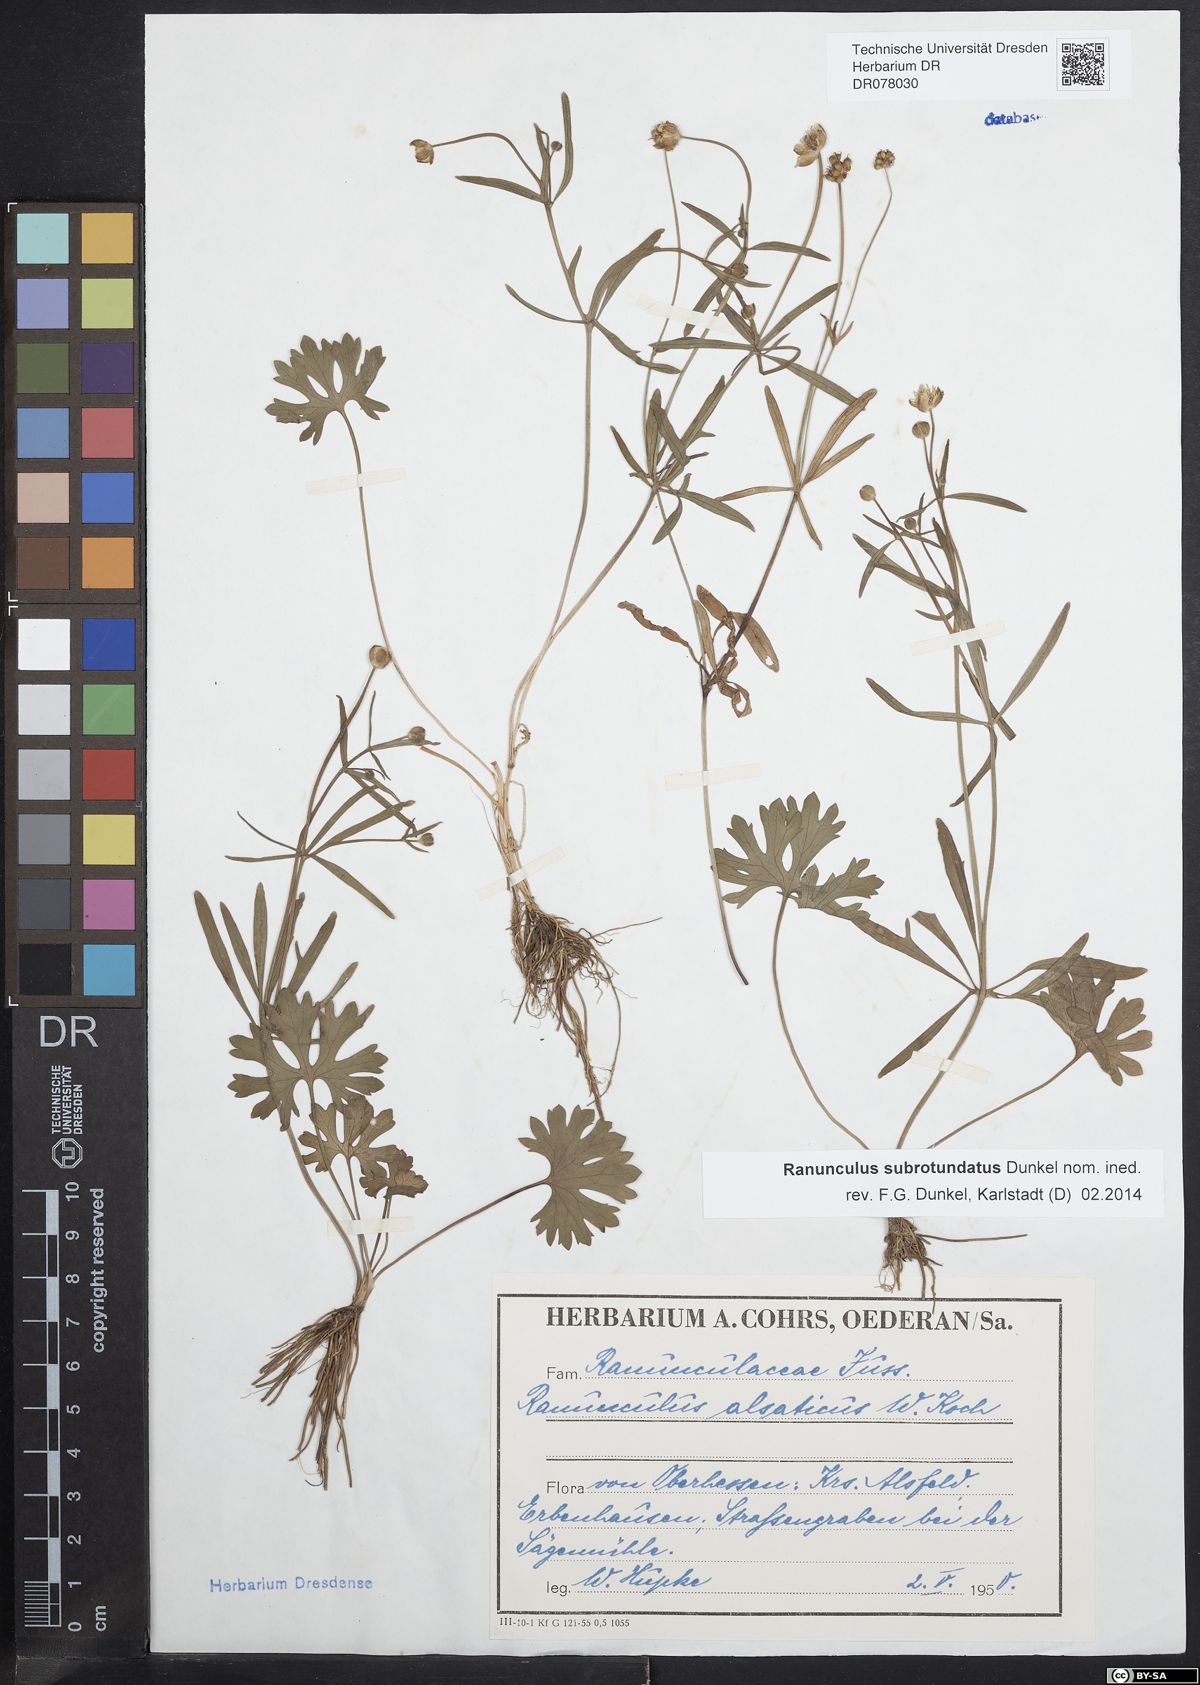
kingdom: Plantae
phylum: Tracheophyta
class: Magnoliopsida
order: Ranunculales
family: Ranunculaceae
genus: Ranunculus
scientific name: Ranunculus auricomus
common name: Goldilocks buttercup
